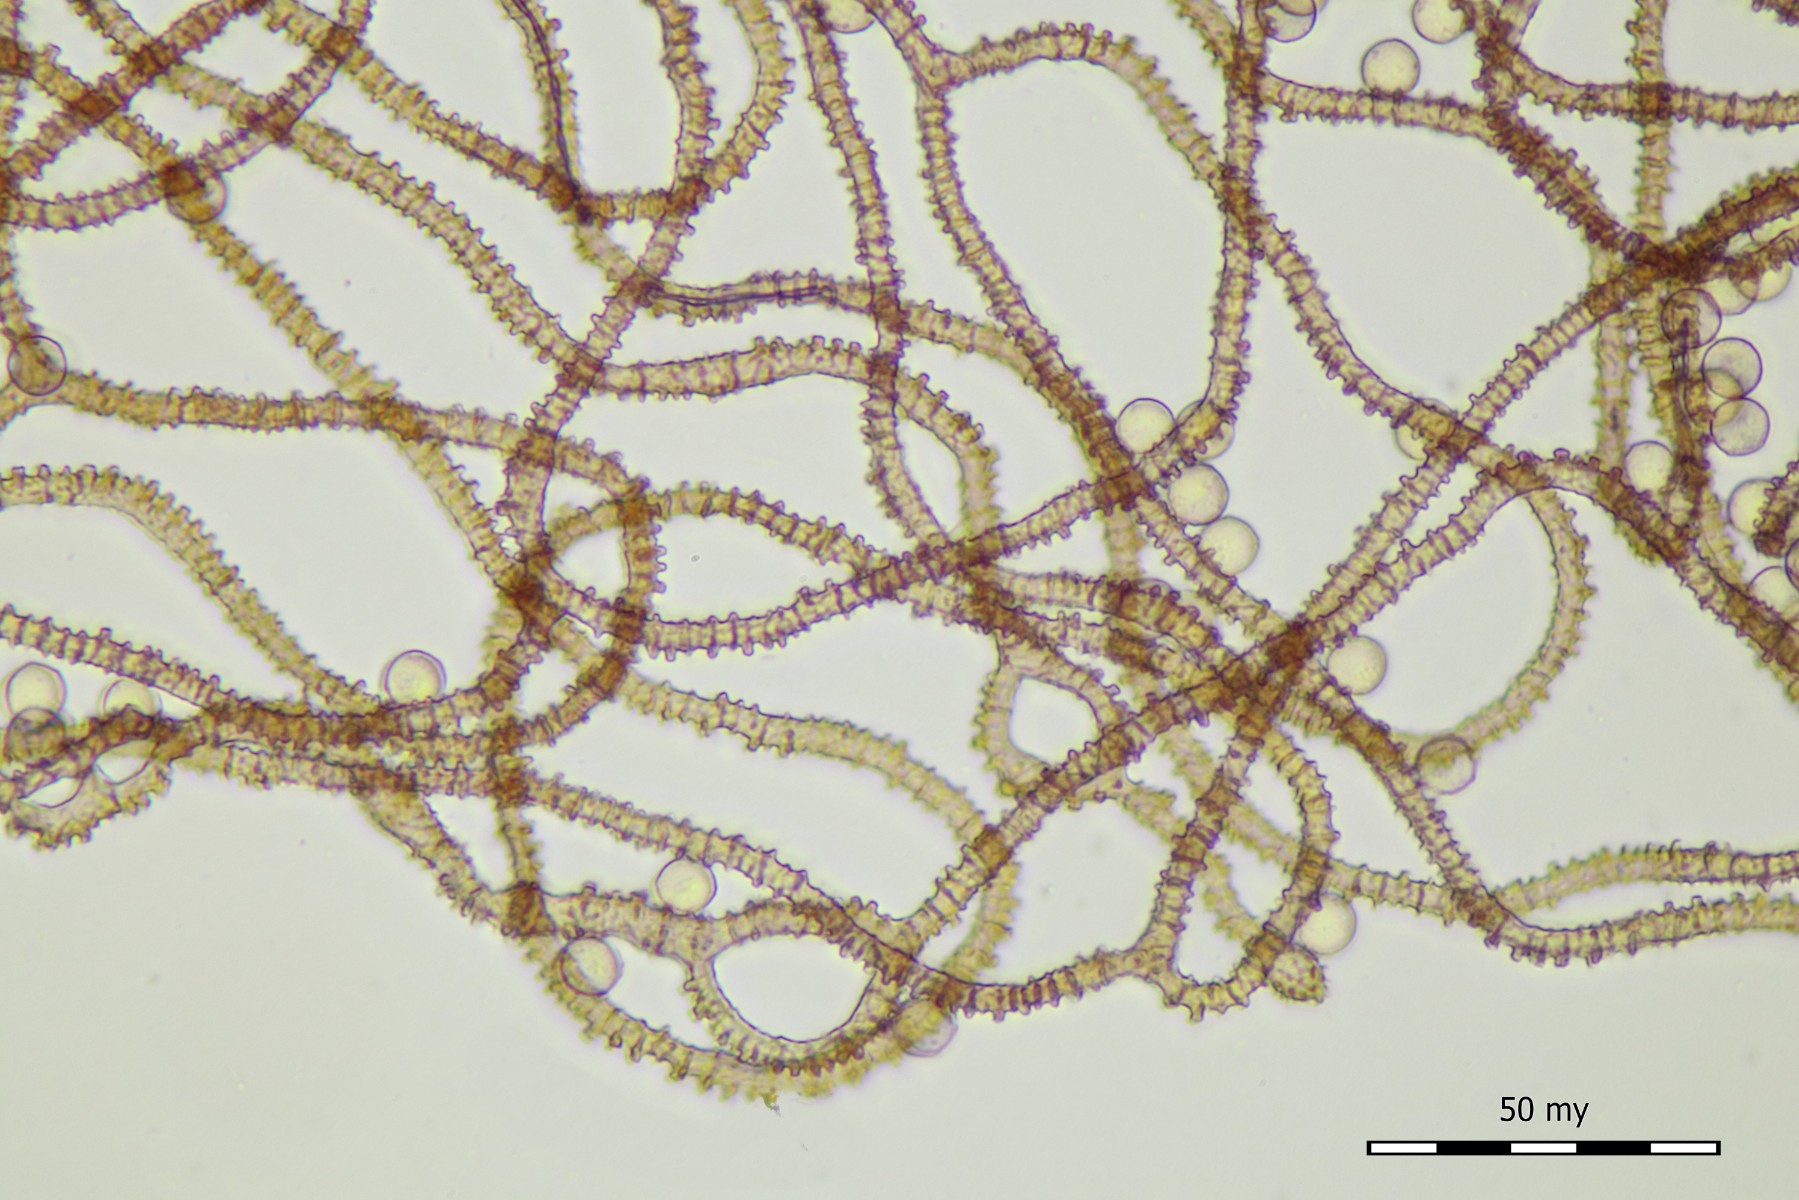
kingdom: Protozoa
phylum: Mycetozoa
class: Myxomycetes
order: Trichiales
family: Arcyriaceae
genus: Arcyria
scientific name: Arcyria affinis
